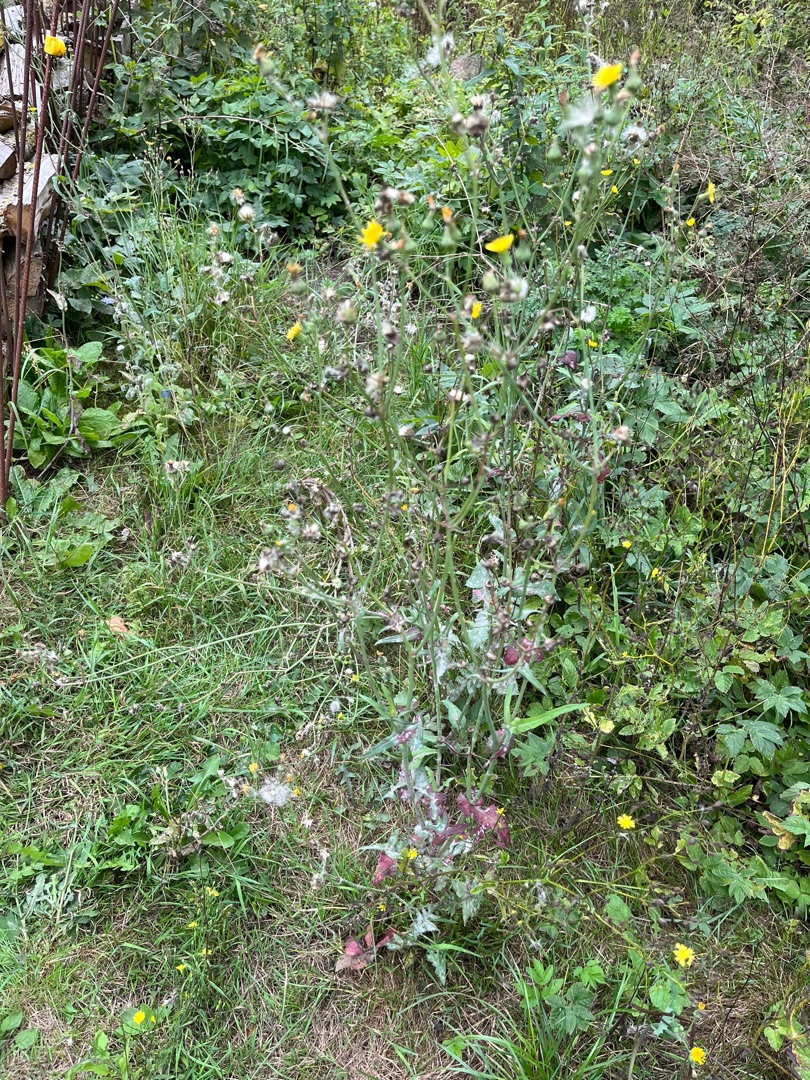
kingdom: Plantae
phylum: Tracheophyta
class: Magnoliopsida
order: Asterales
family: Asteraceae
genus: Sonchus
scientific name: Sonchus oleraceus
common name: Almindelig svinemælk
